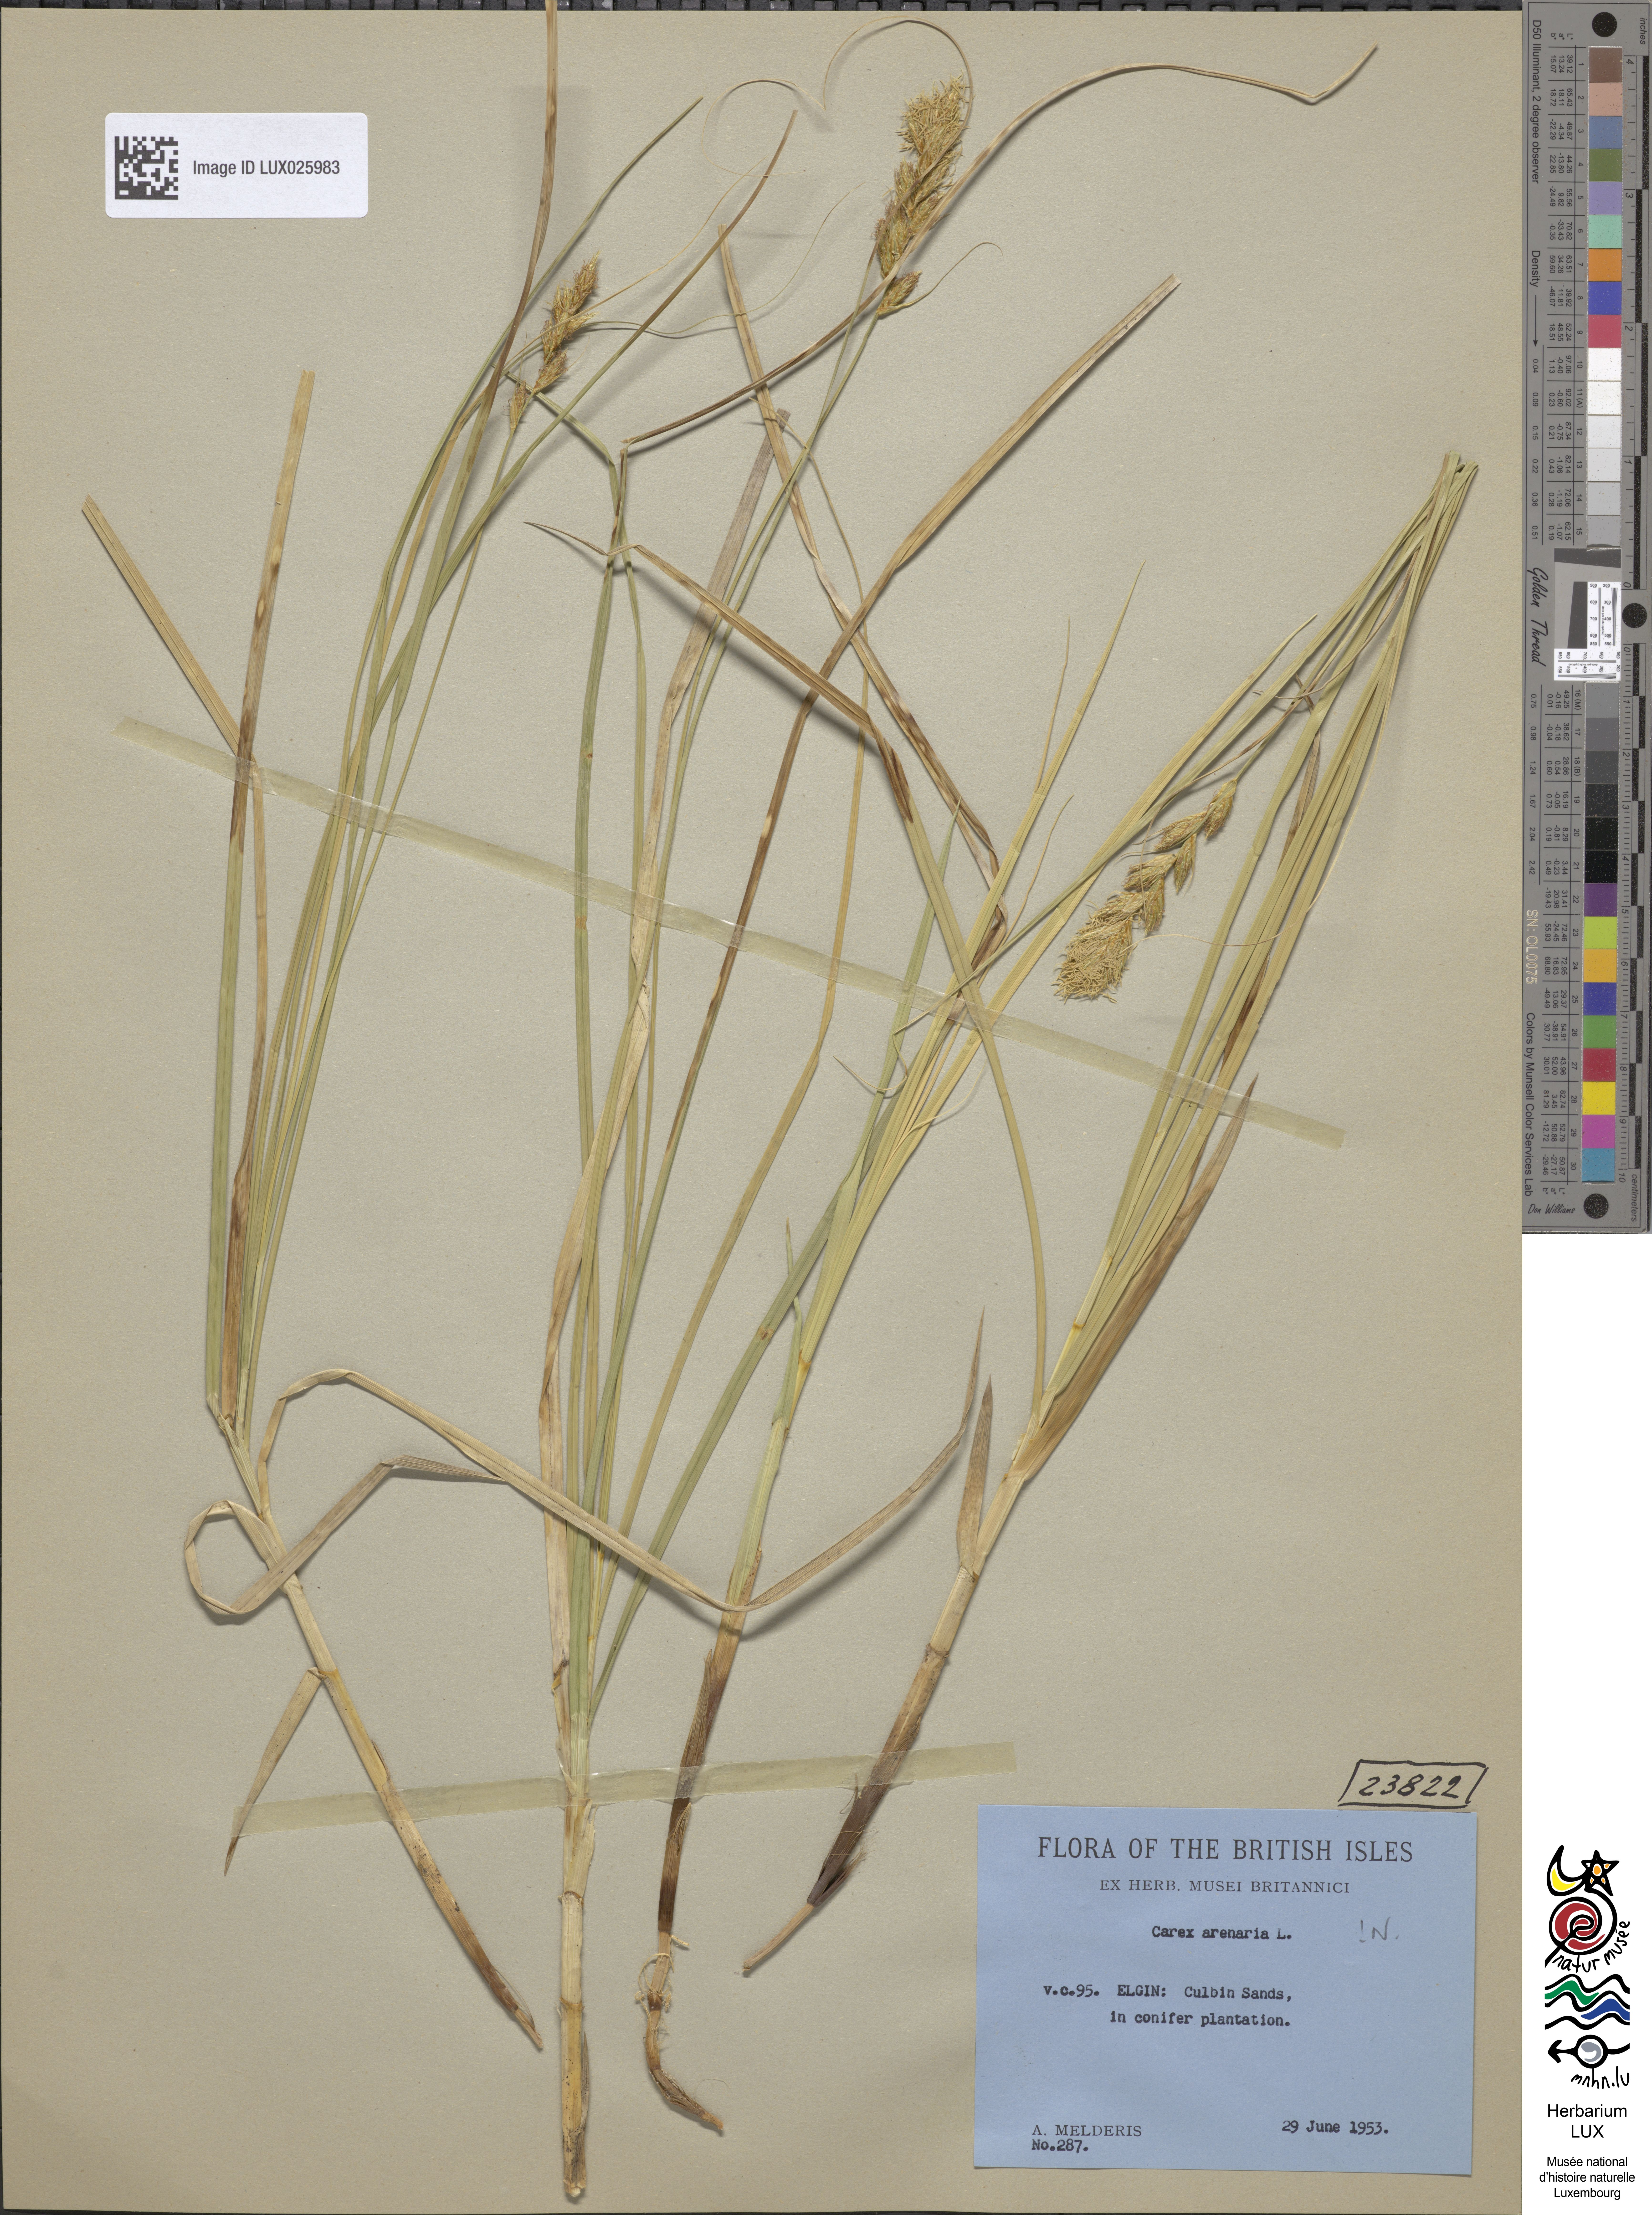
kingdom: Plantae
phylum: Tracheophyta
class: Liliopsida
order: Poales
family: Cyperaceae
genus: Carex
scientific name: Carex arenaria
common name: Sand sedge
